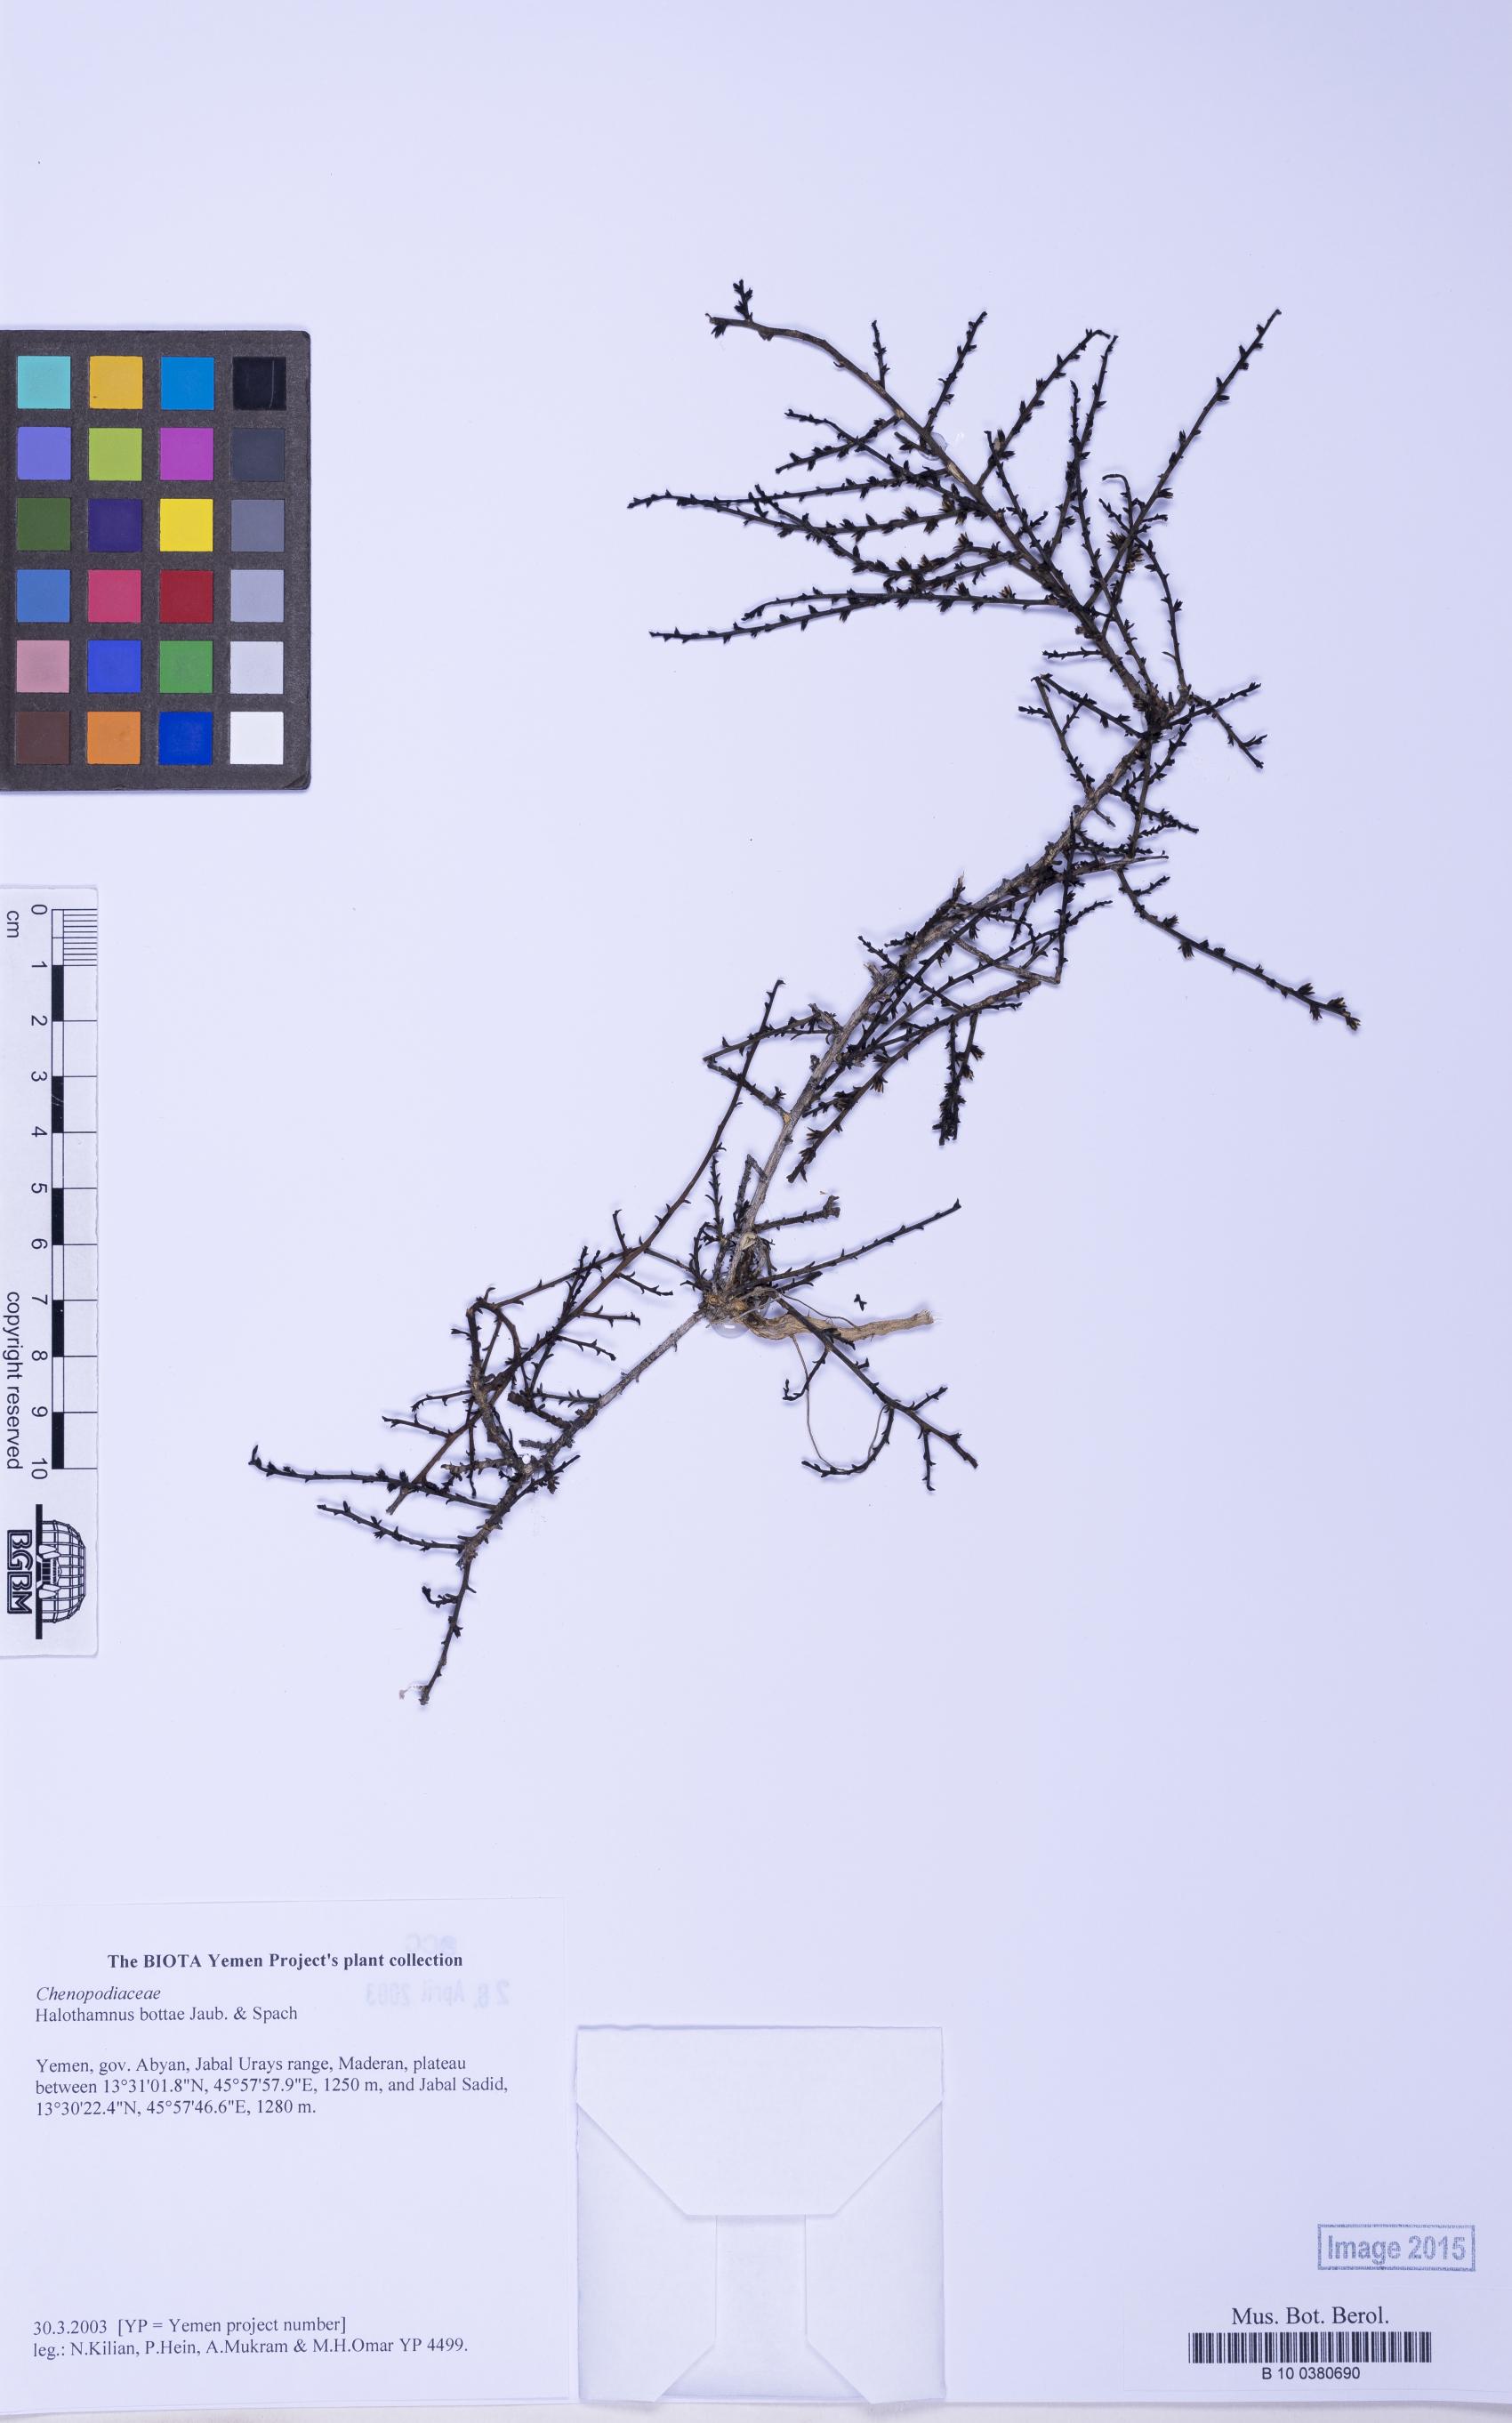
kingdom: Plantae
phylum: Tracheophyta
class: Magnoliopsida
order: Caryophyllales
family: Amaranthaceae
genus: Halothamnus
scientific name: Halothamnus bottae
